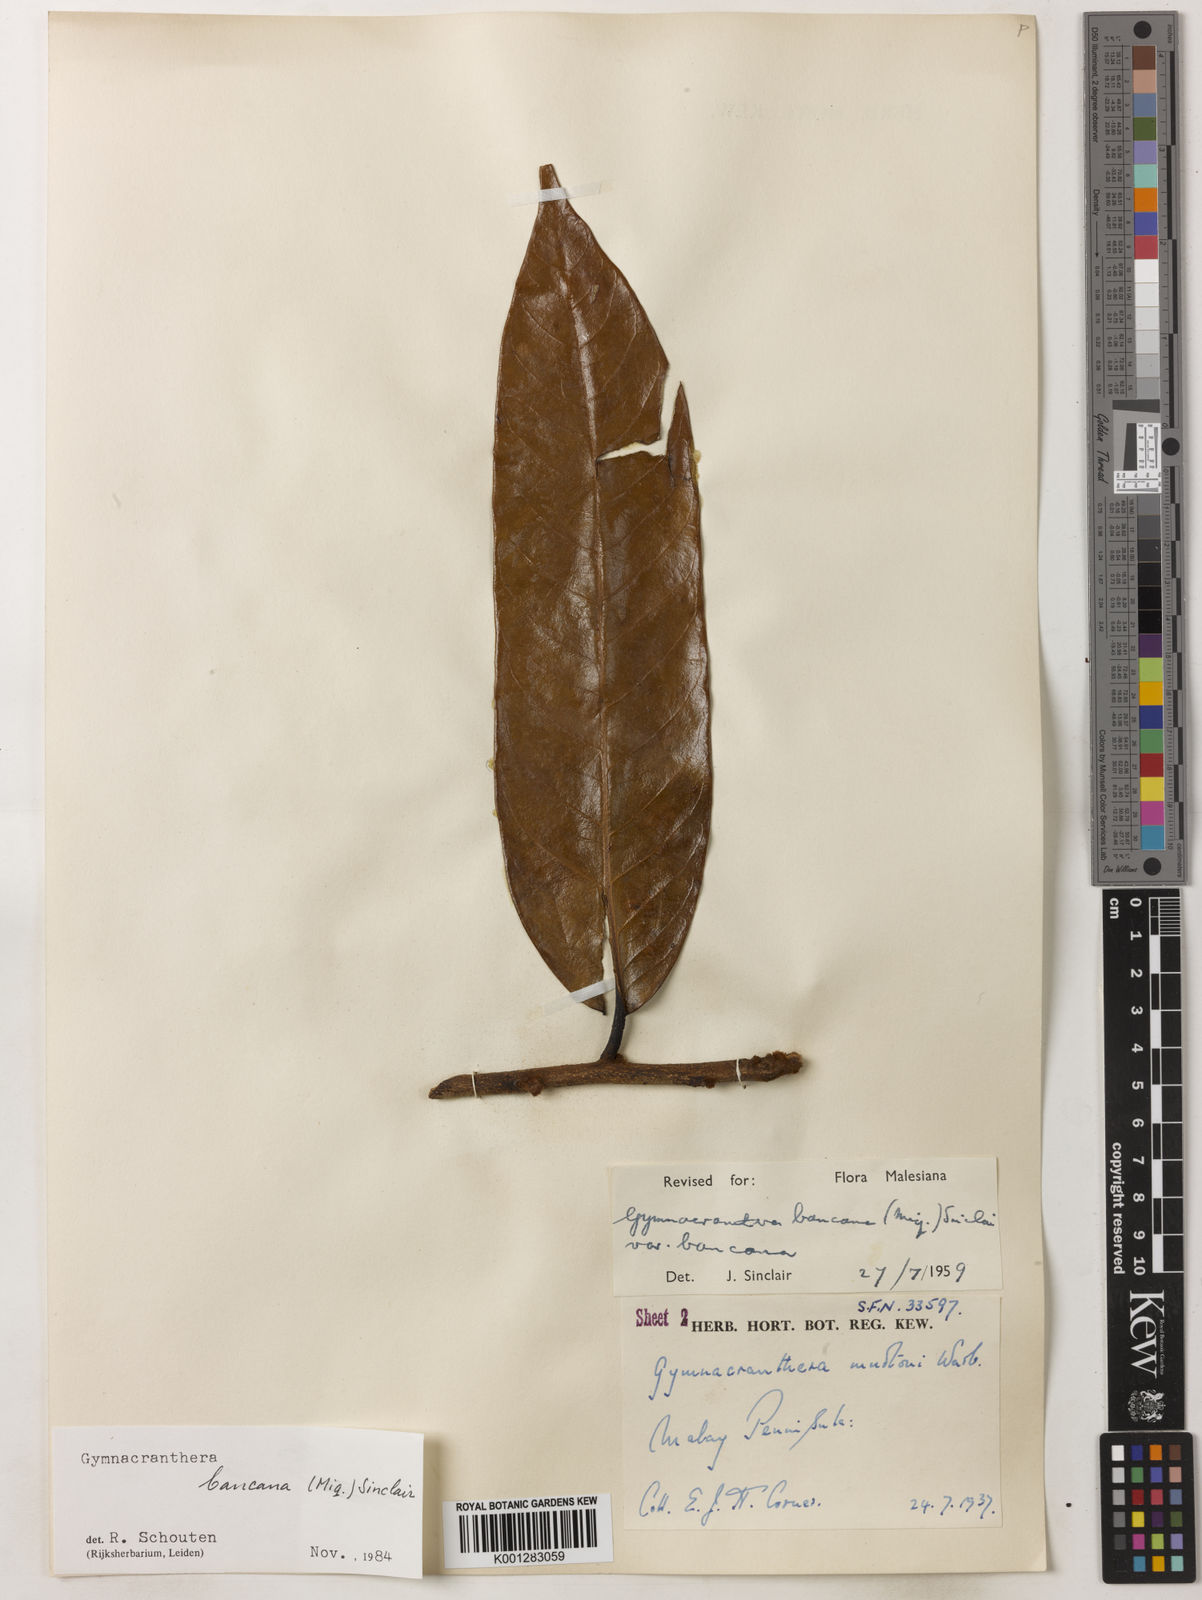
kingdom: Plantae
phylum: Tracheophyta
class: Magnoliopsida
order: Magnoliales
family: Myristicaceae
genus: Gymnacranthera
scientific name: Gymnacranthera bancana
